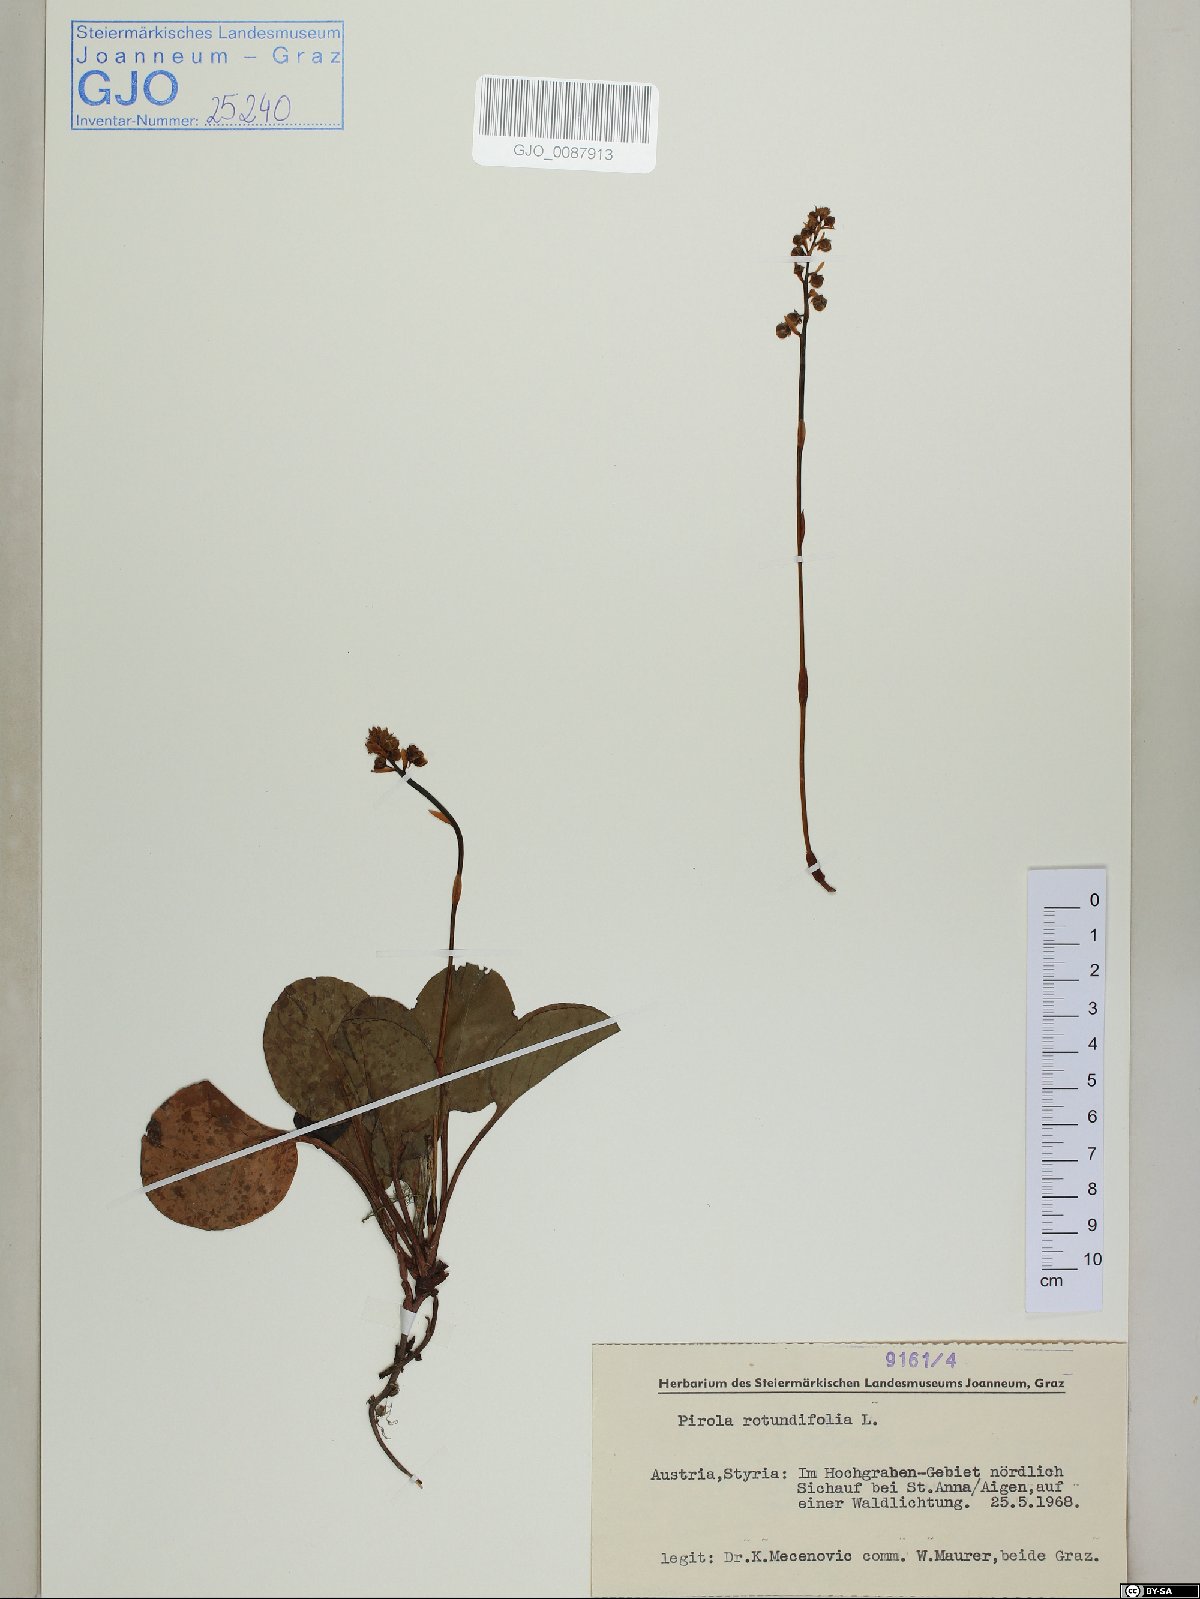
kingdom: Plantae
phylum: Tracheophyta
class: Magnoliopsida
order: Ericales
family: Ericaceae
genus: Pyrola
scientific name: Pyrola rotundifolia
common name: Round-leaved wintergreen
